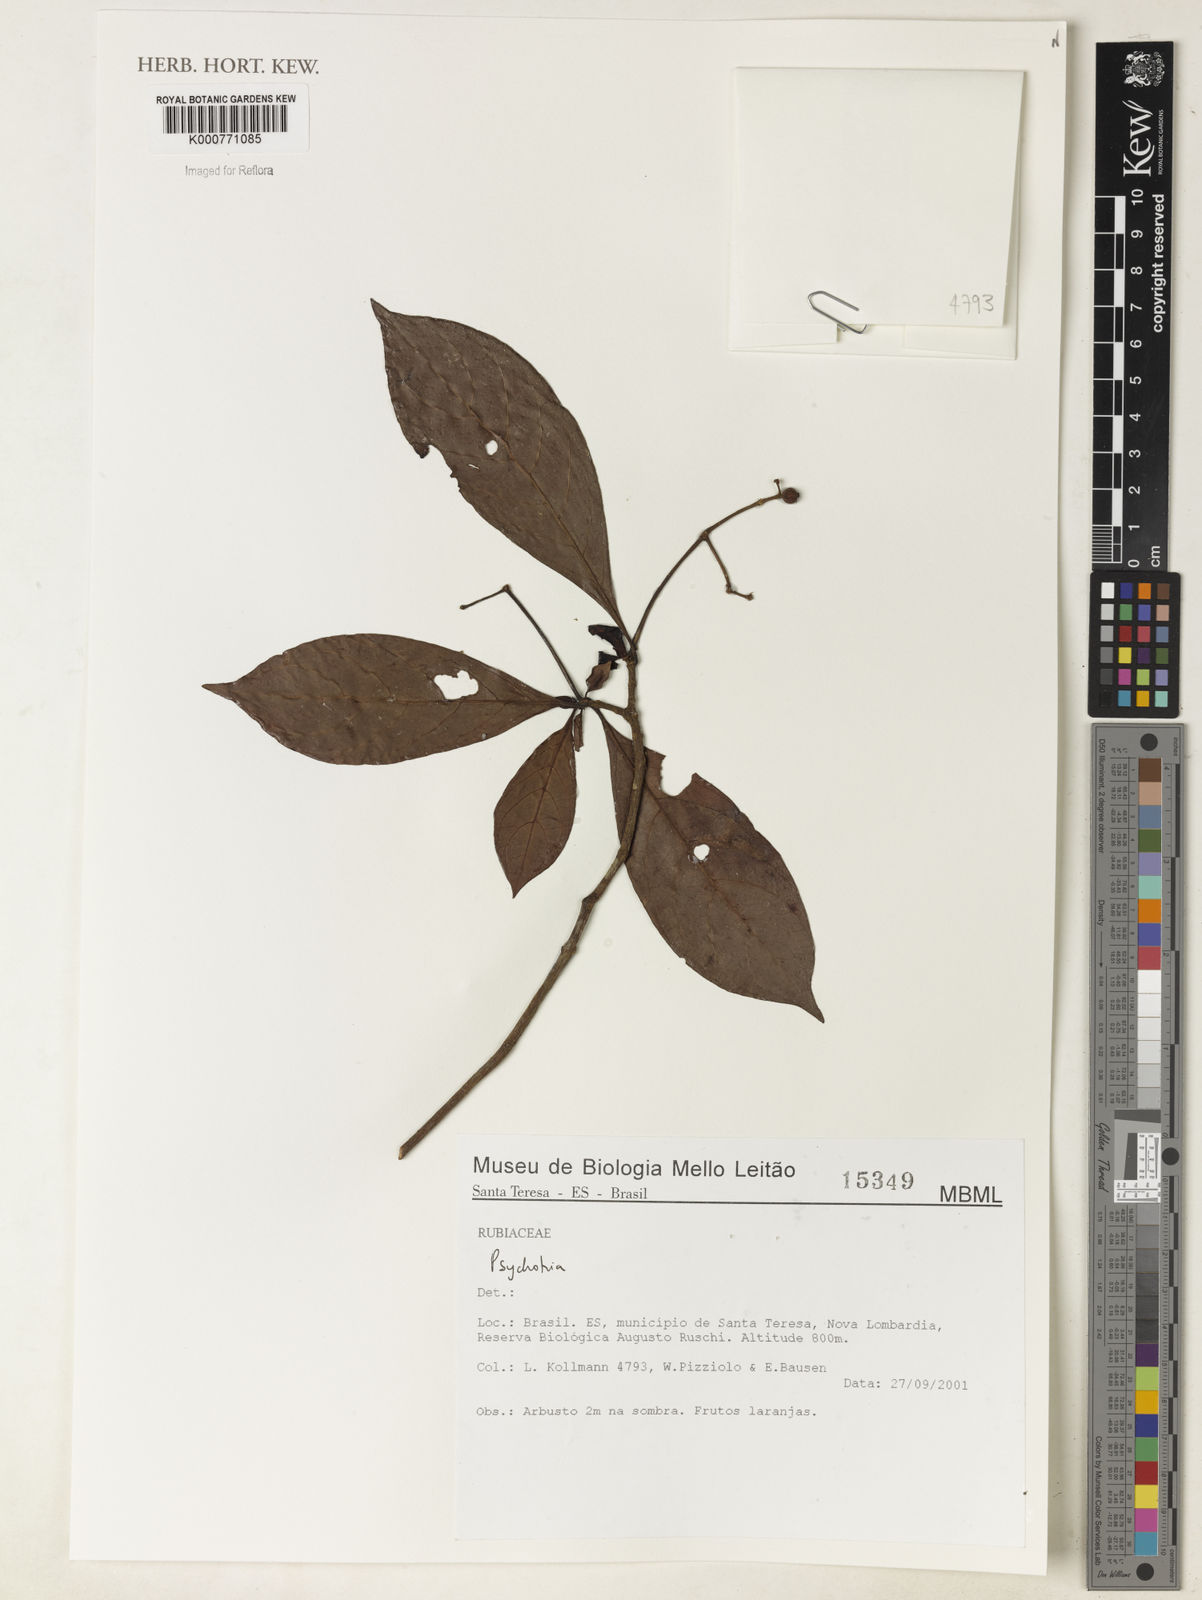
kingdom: Plantae
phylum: Tracheophyta
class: Magnoliopsida
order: Gentianales
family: Rubiaceae
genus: Psychotria
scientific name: Psychotria
